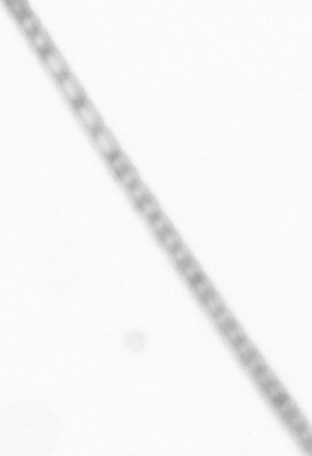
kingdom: Chromista
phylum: Ochrophyta
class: Bacillariophyceae
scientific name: Bacillariophyceae
